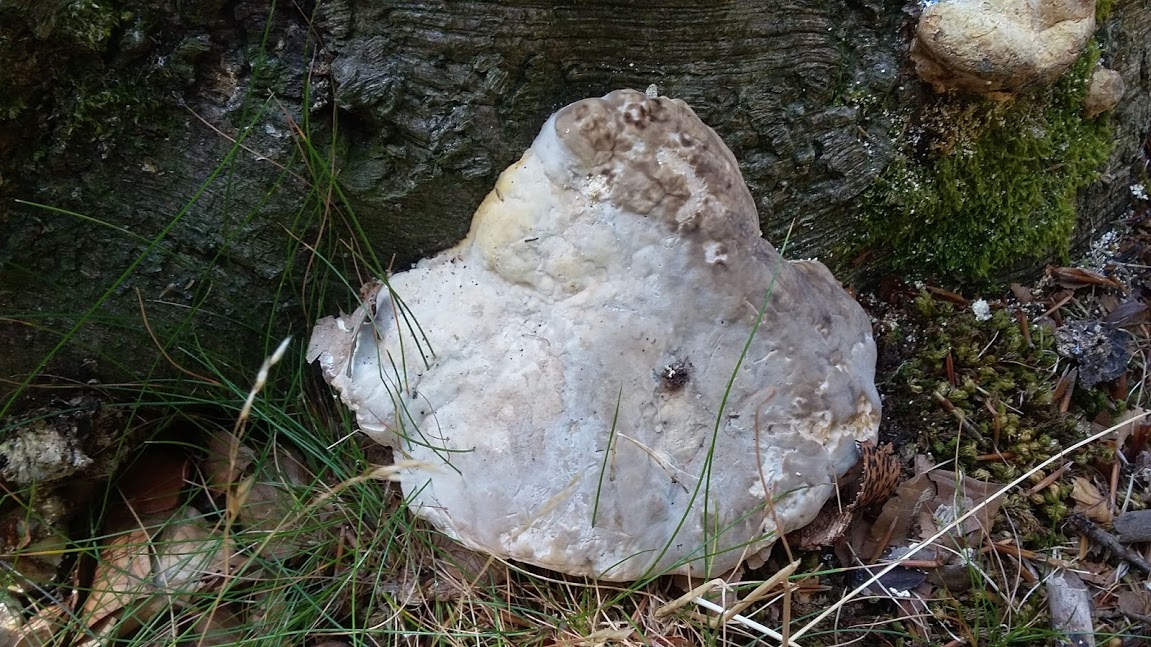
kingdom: Fungi
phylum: Basidiomycota
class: Agaricomycetes
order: Polyporales
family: Polyporaceae
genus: Trametes
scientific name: Trametes gibbosa
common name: puklet læderporesvamp
